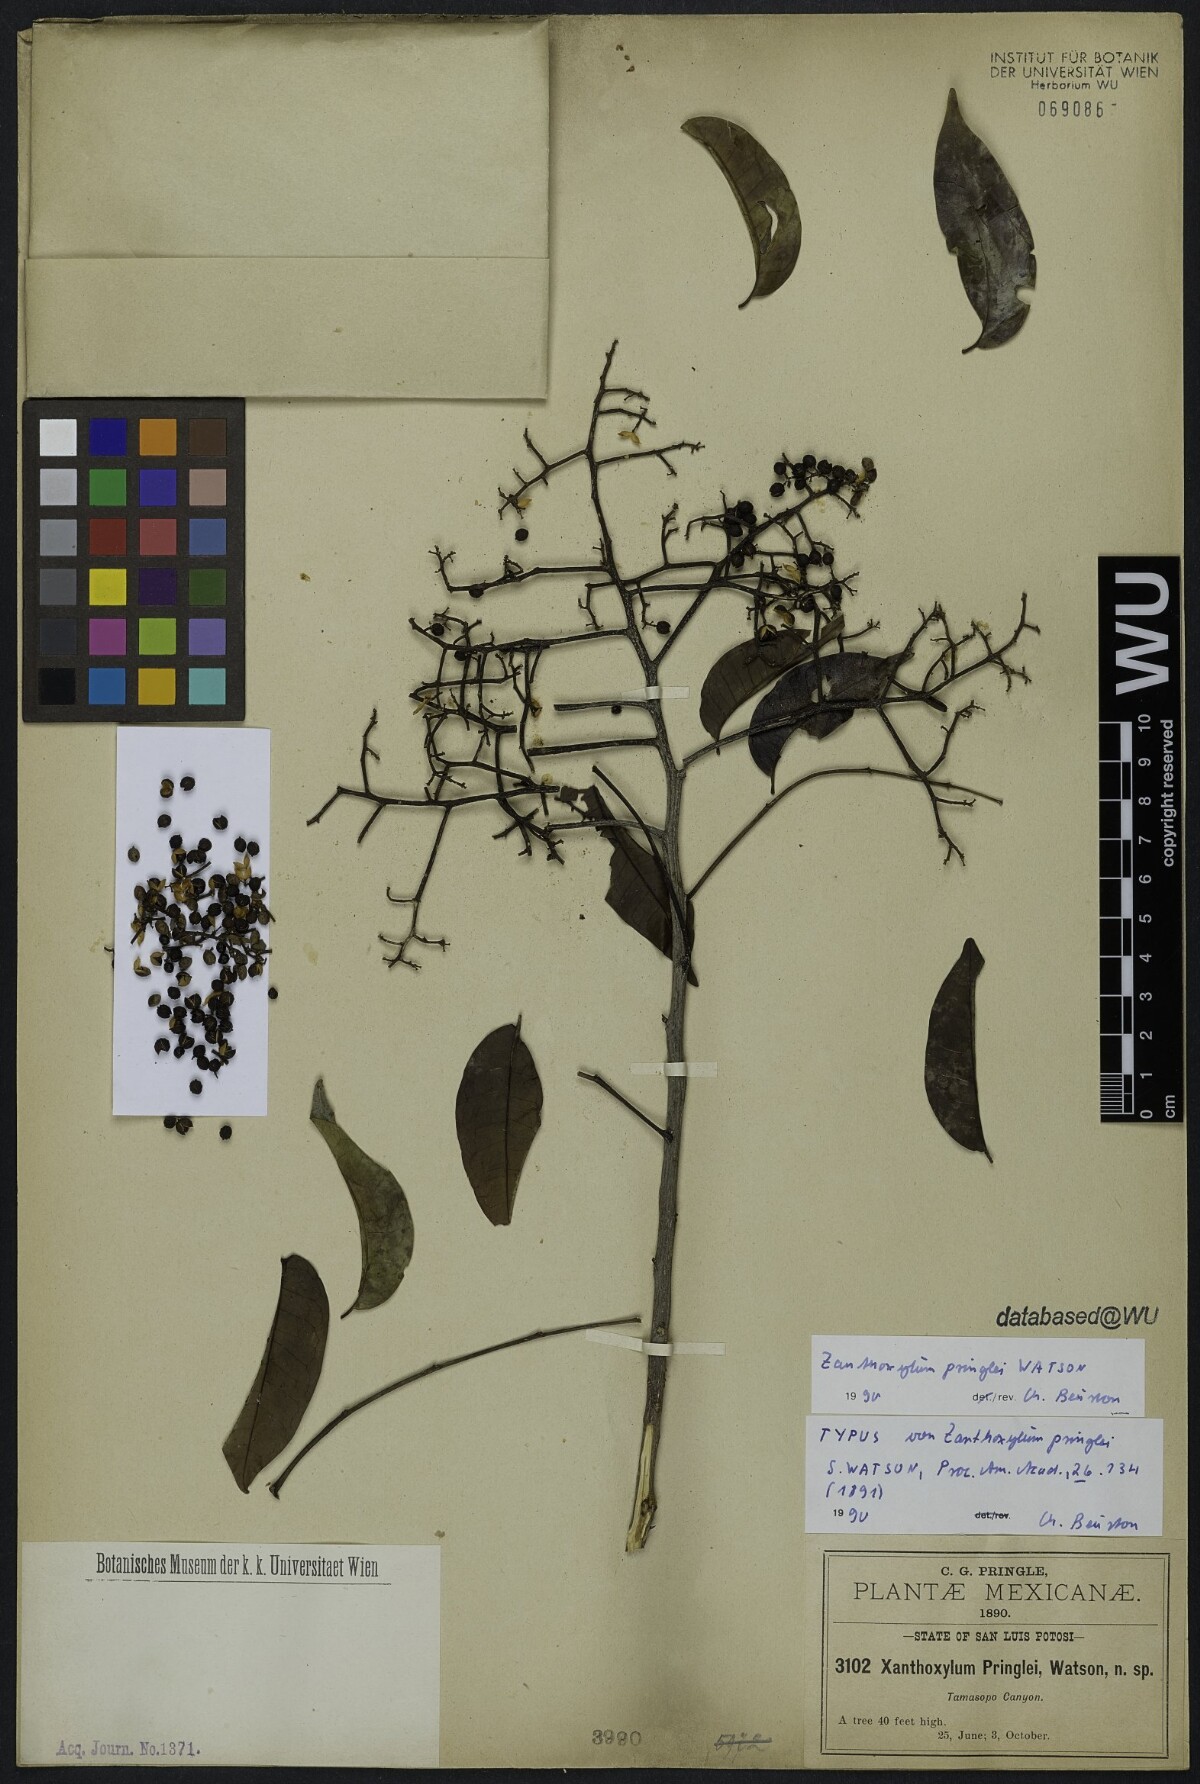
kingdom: Plantae
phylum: Tracheophyta
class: Magnoliopsida
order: Sapindales
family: Rutaceae
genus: Zanthoxylum
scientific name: Zanthoxylum acuminatum
